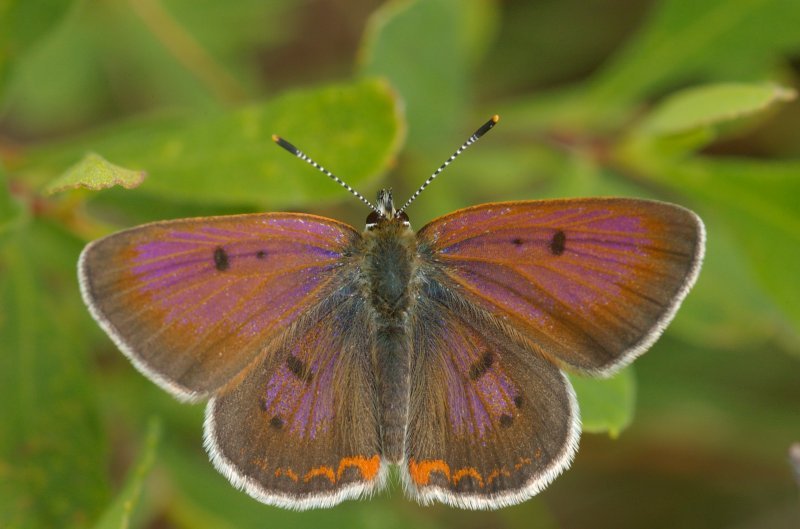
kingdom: Animalia
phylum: Arthropoda
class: Insecta
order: Lepidoptera
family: Sesiidae
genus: Sesia
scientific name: Sesia Lycaena epixanthe
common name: Bog Copper
